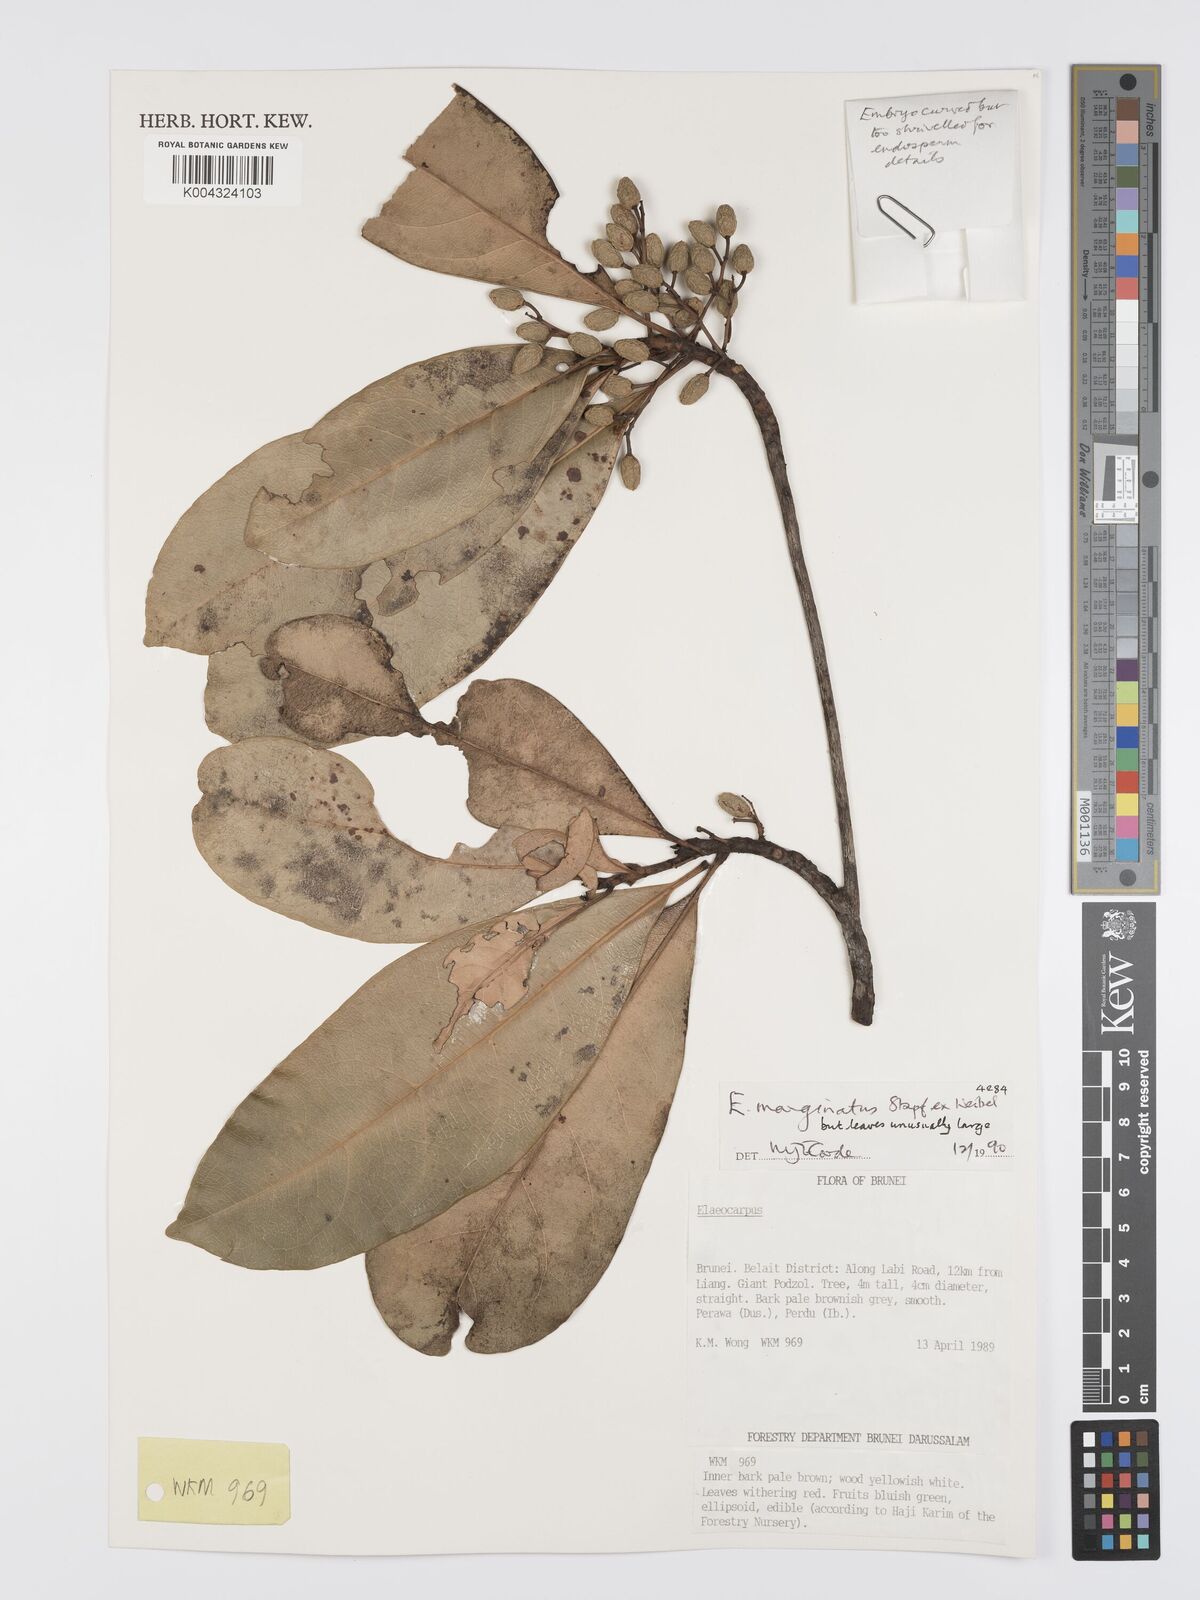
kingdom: Plantae
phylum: Tracheophyta
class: Magnoliopsida
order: Oxalidales
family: Elaeocarpaceae
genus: Elaeocarpus
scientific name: Elaeocarpus marginatus
